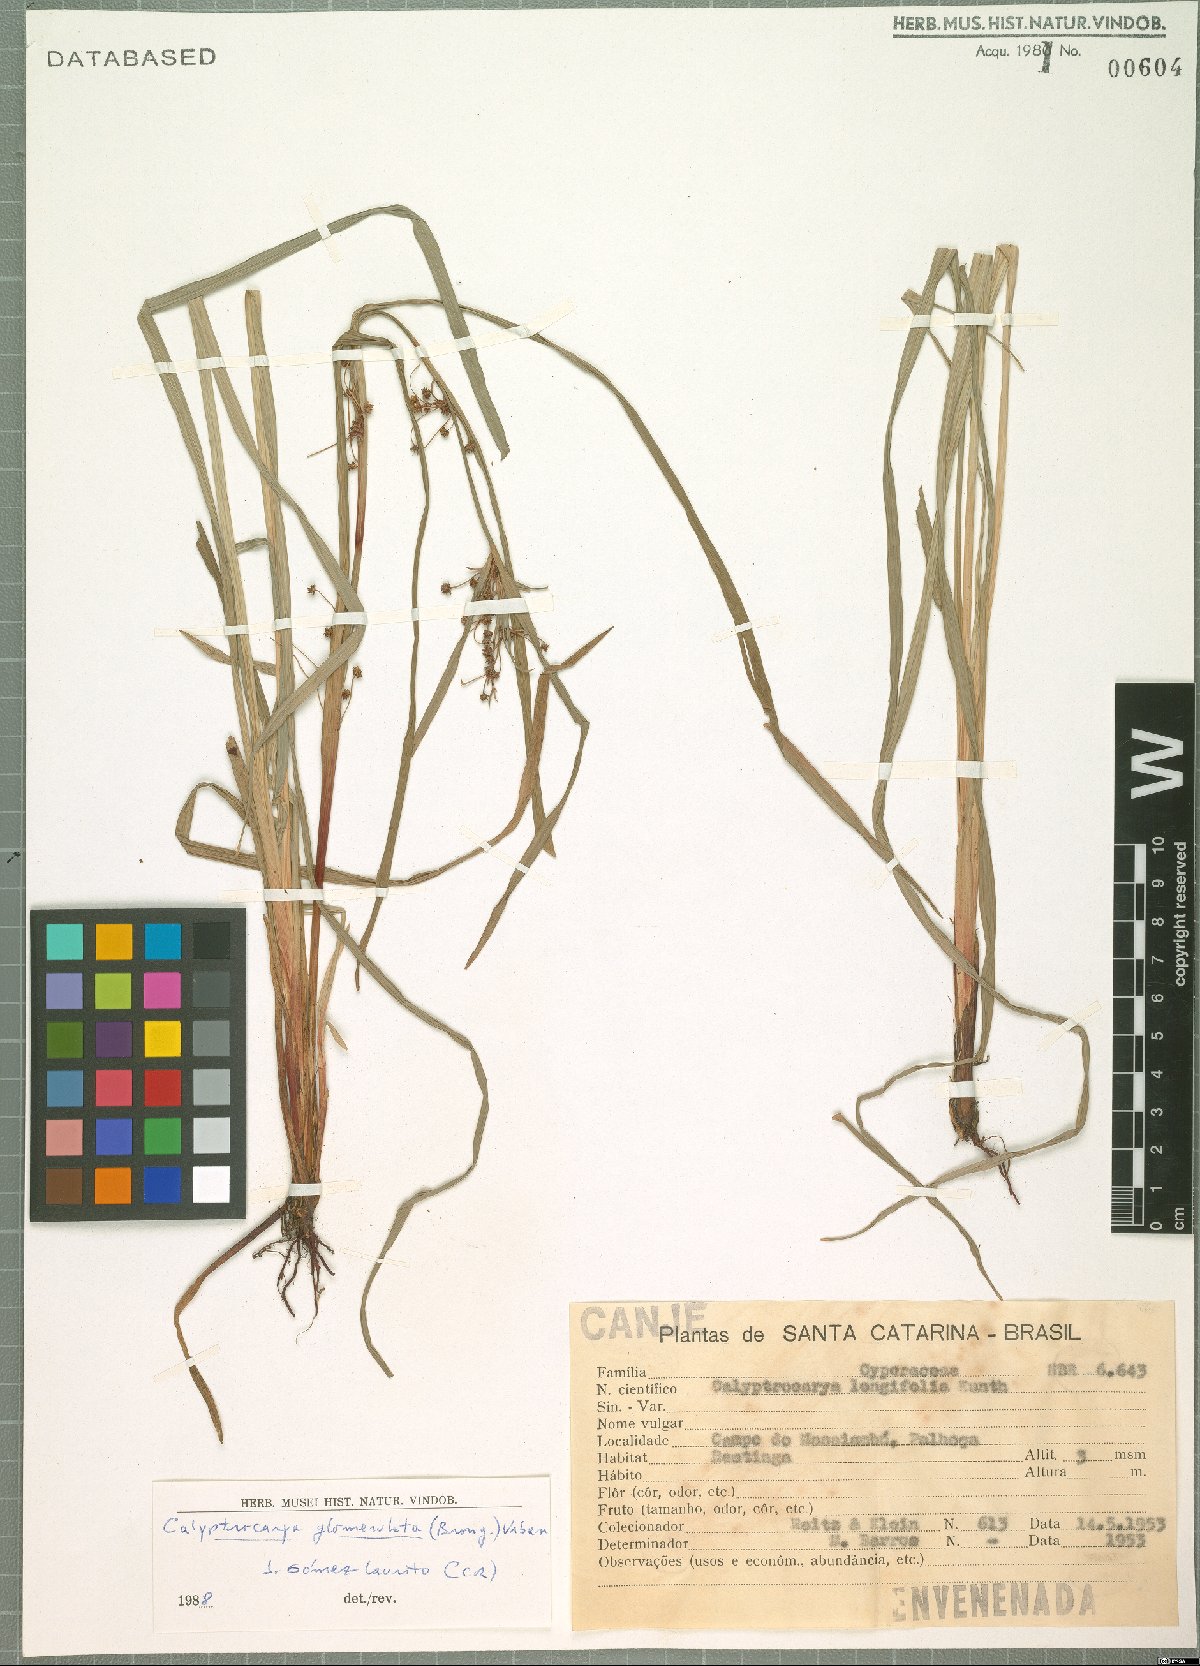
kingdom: Plantae
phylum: Tracheophyta
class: Liliopsida
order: Poales
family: Cyperaceae
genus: Calyptrocarya
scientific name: Calyptrocarya glomerulata
